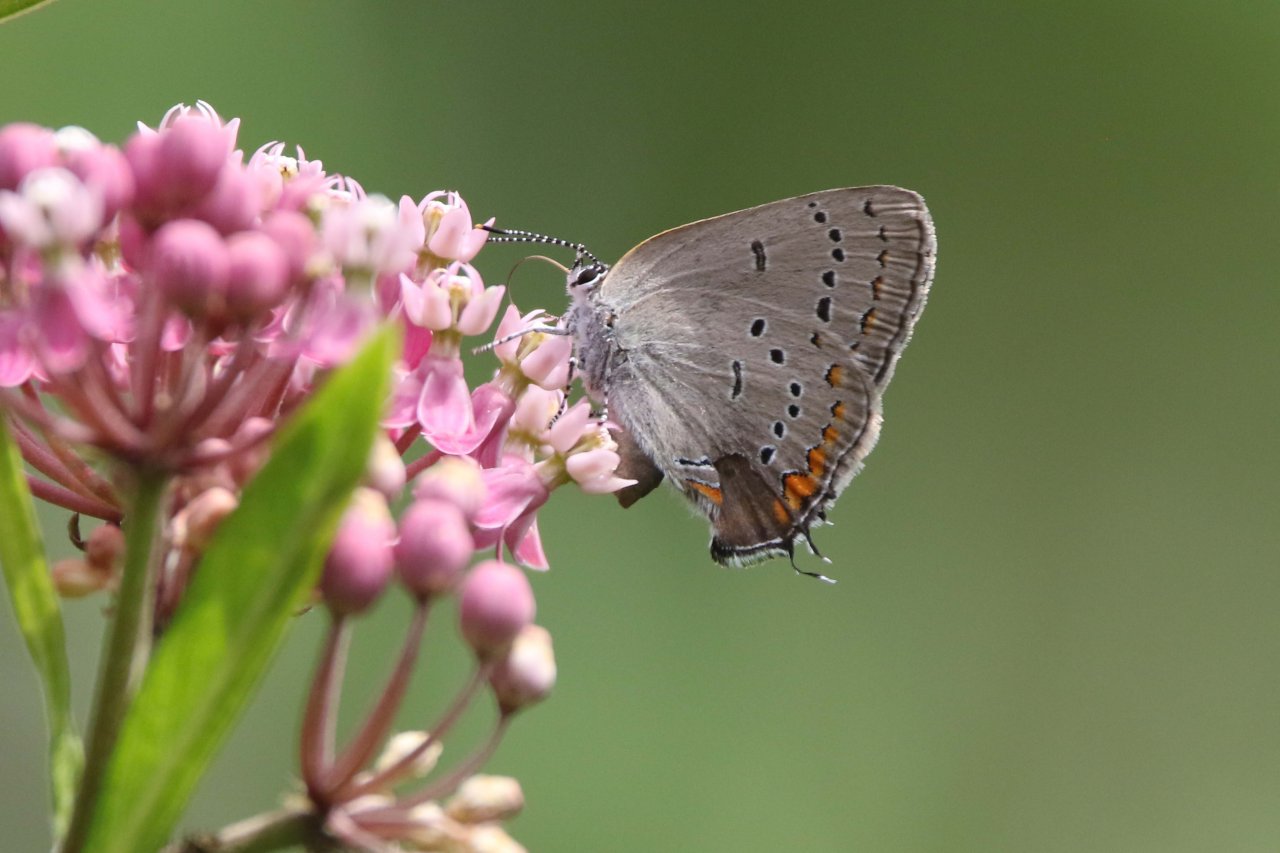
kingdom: Animalia
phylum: Arthropoda
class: Insecta
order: Lepidoptera
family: Lycaenidae
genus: Strymon
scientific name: Strymon acadica
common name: Acadian Hairstreak
